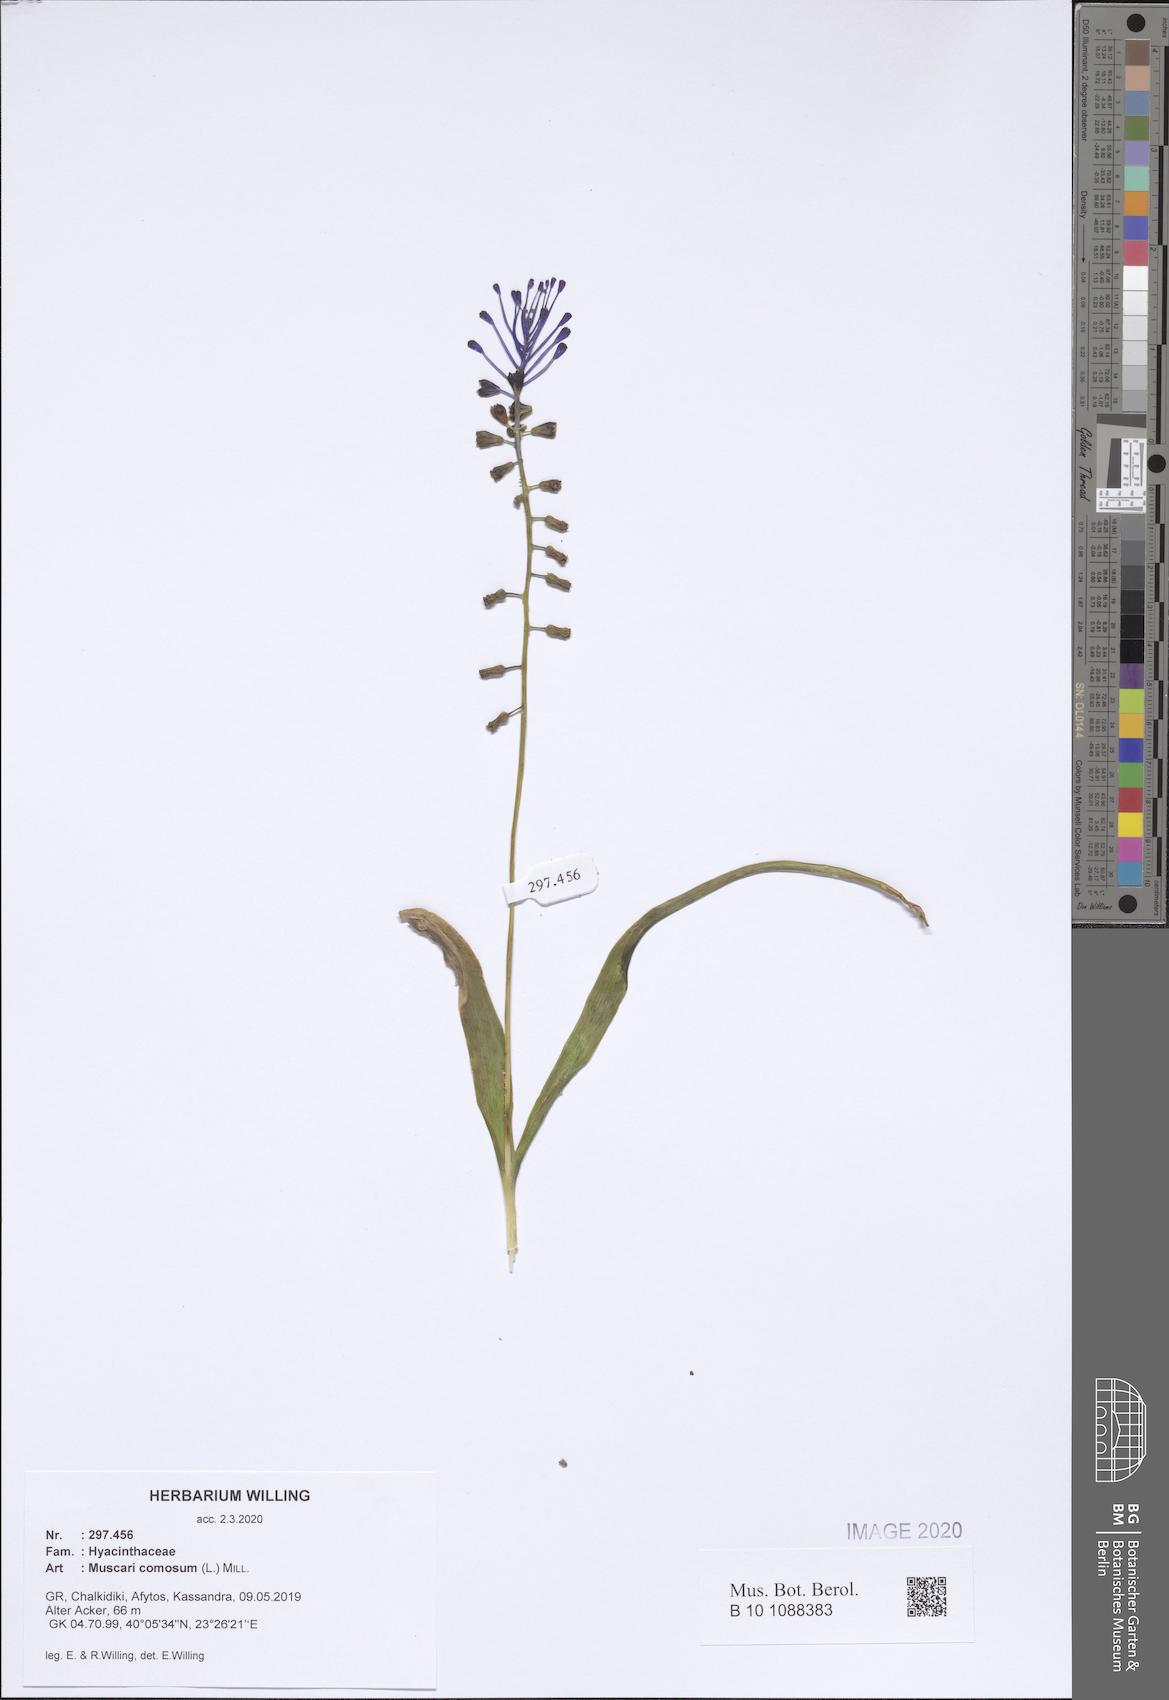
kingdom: Plantae
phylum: Tracheophyta
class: Liliopsida
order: Asparagales
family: Asparagaceae
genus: Muscari
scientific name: Muscari comosum
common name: Tassel hyacinth
